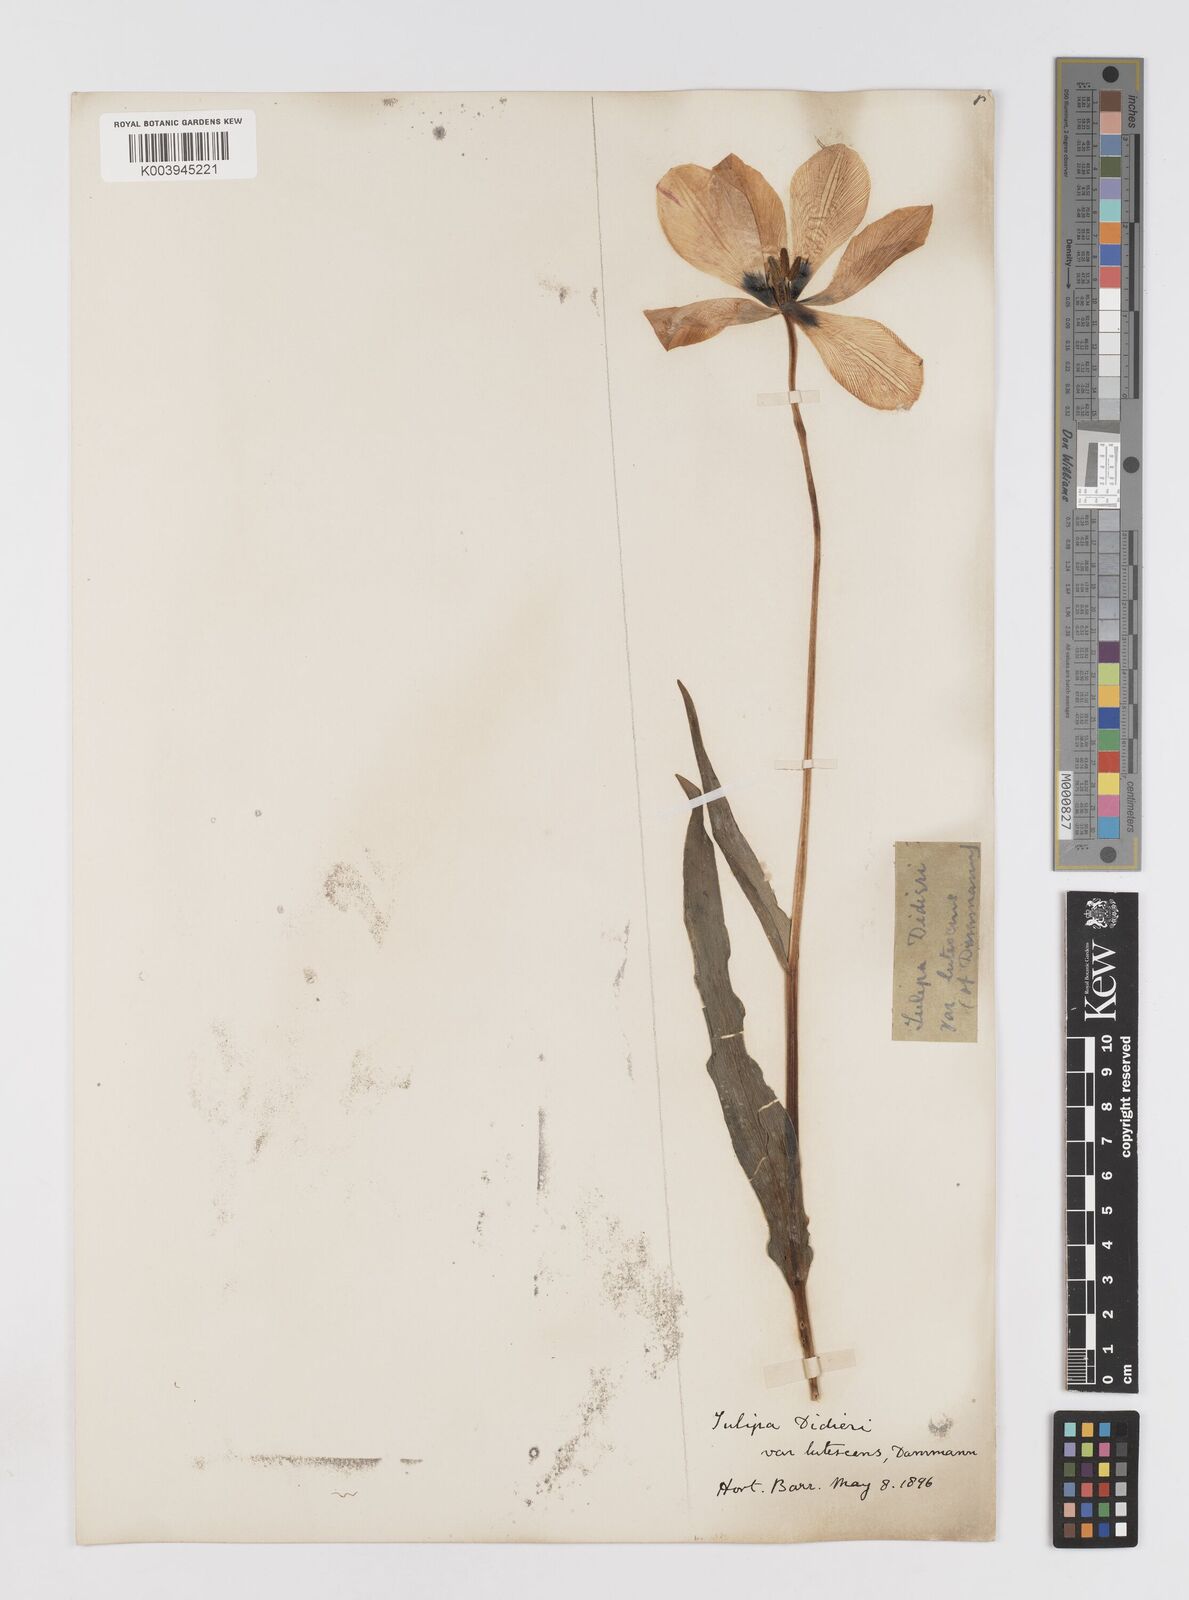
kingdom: Plantae
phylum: Tracheophyta
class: Liliopsida
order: Liliales
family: Liliaceae
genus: Tulipa
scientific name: Tulipa gesneriana
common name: Garden tulip
